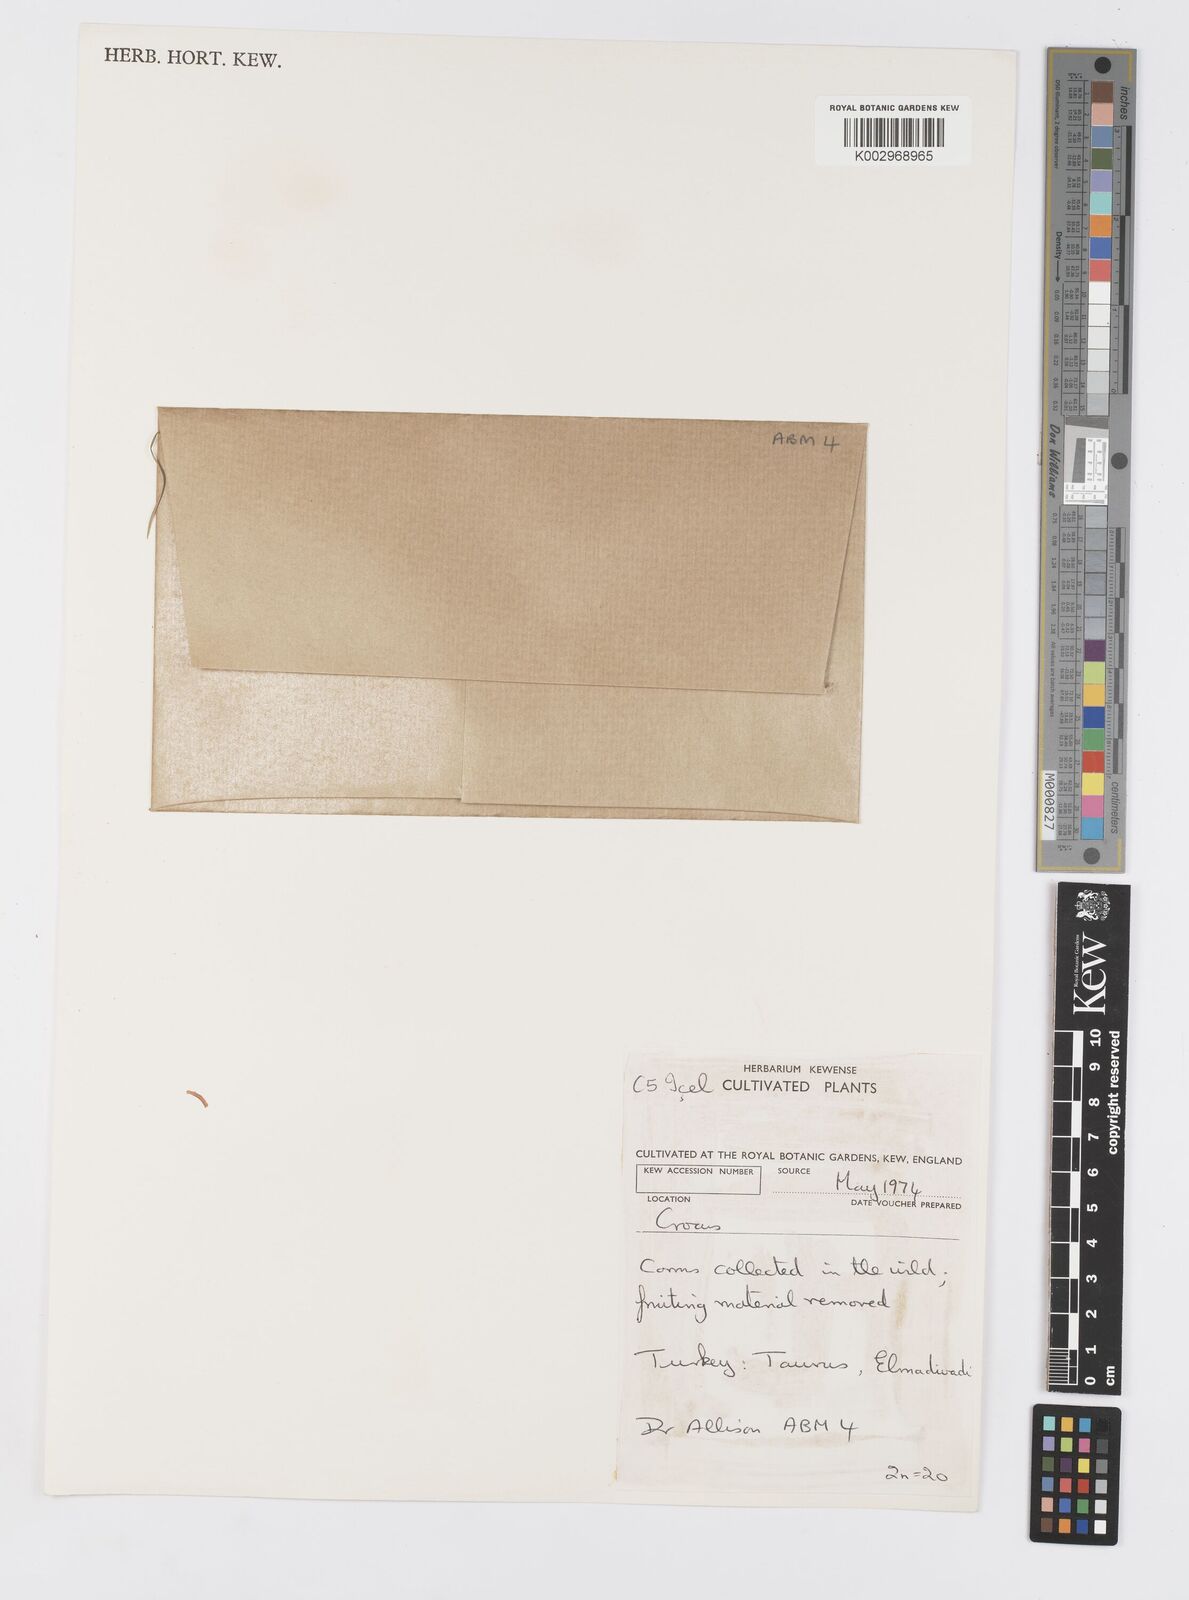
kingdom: Plantae
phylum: Tracheophyta
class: Liliopsida
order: Asparagales
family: Iridaceae
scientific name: Iridaceae
